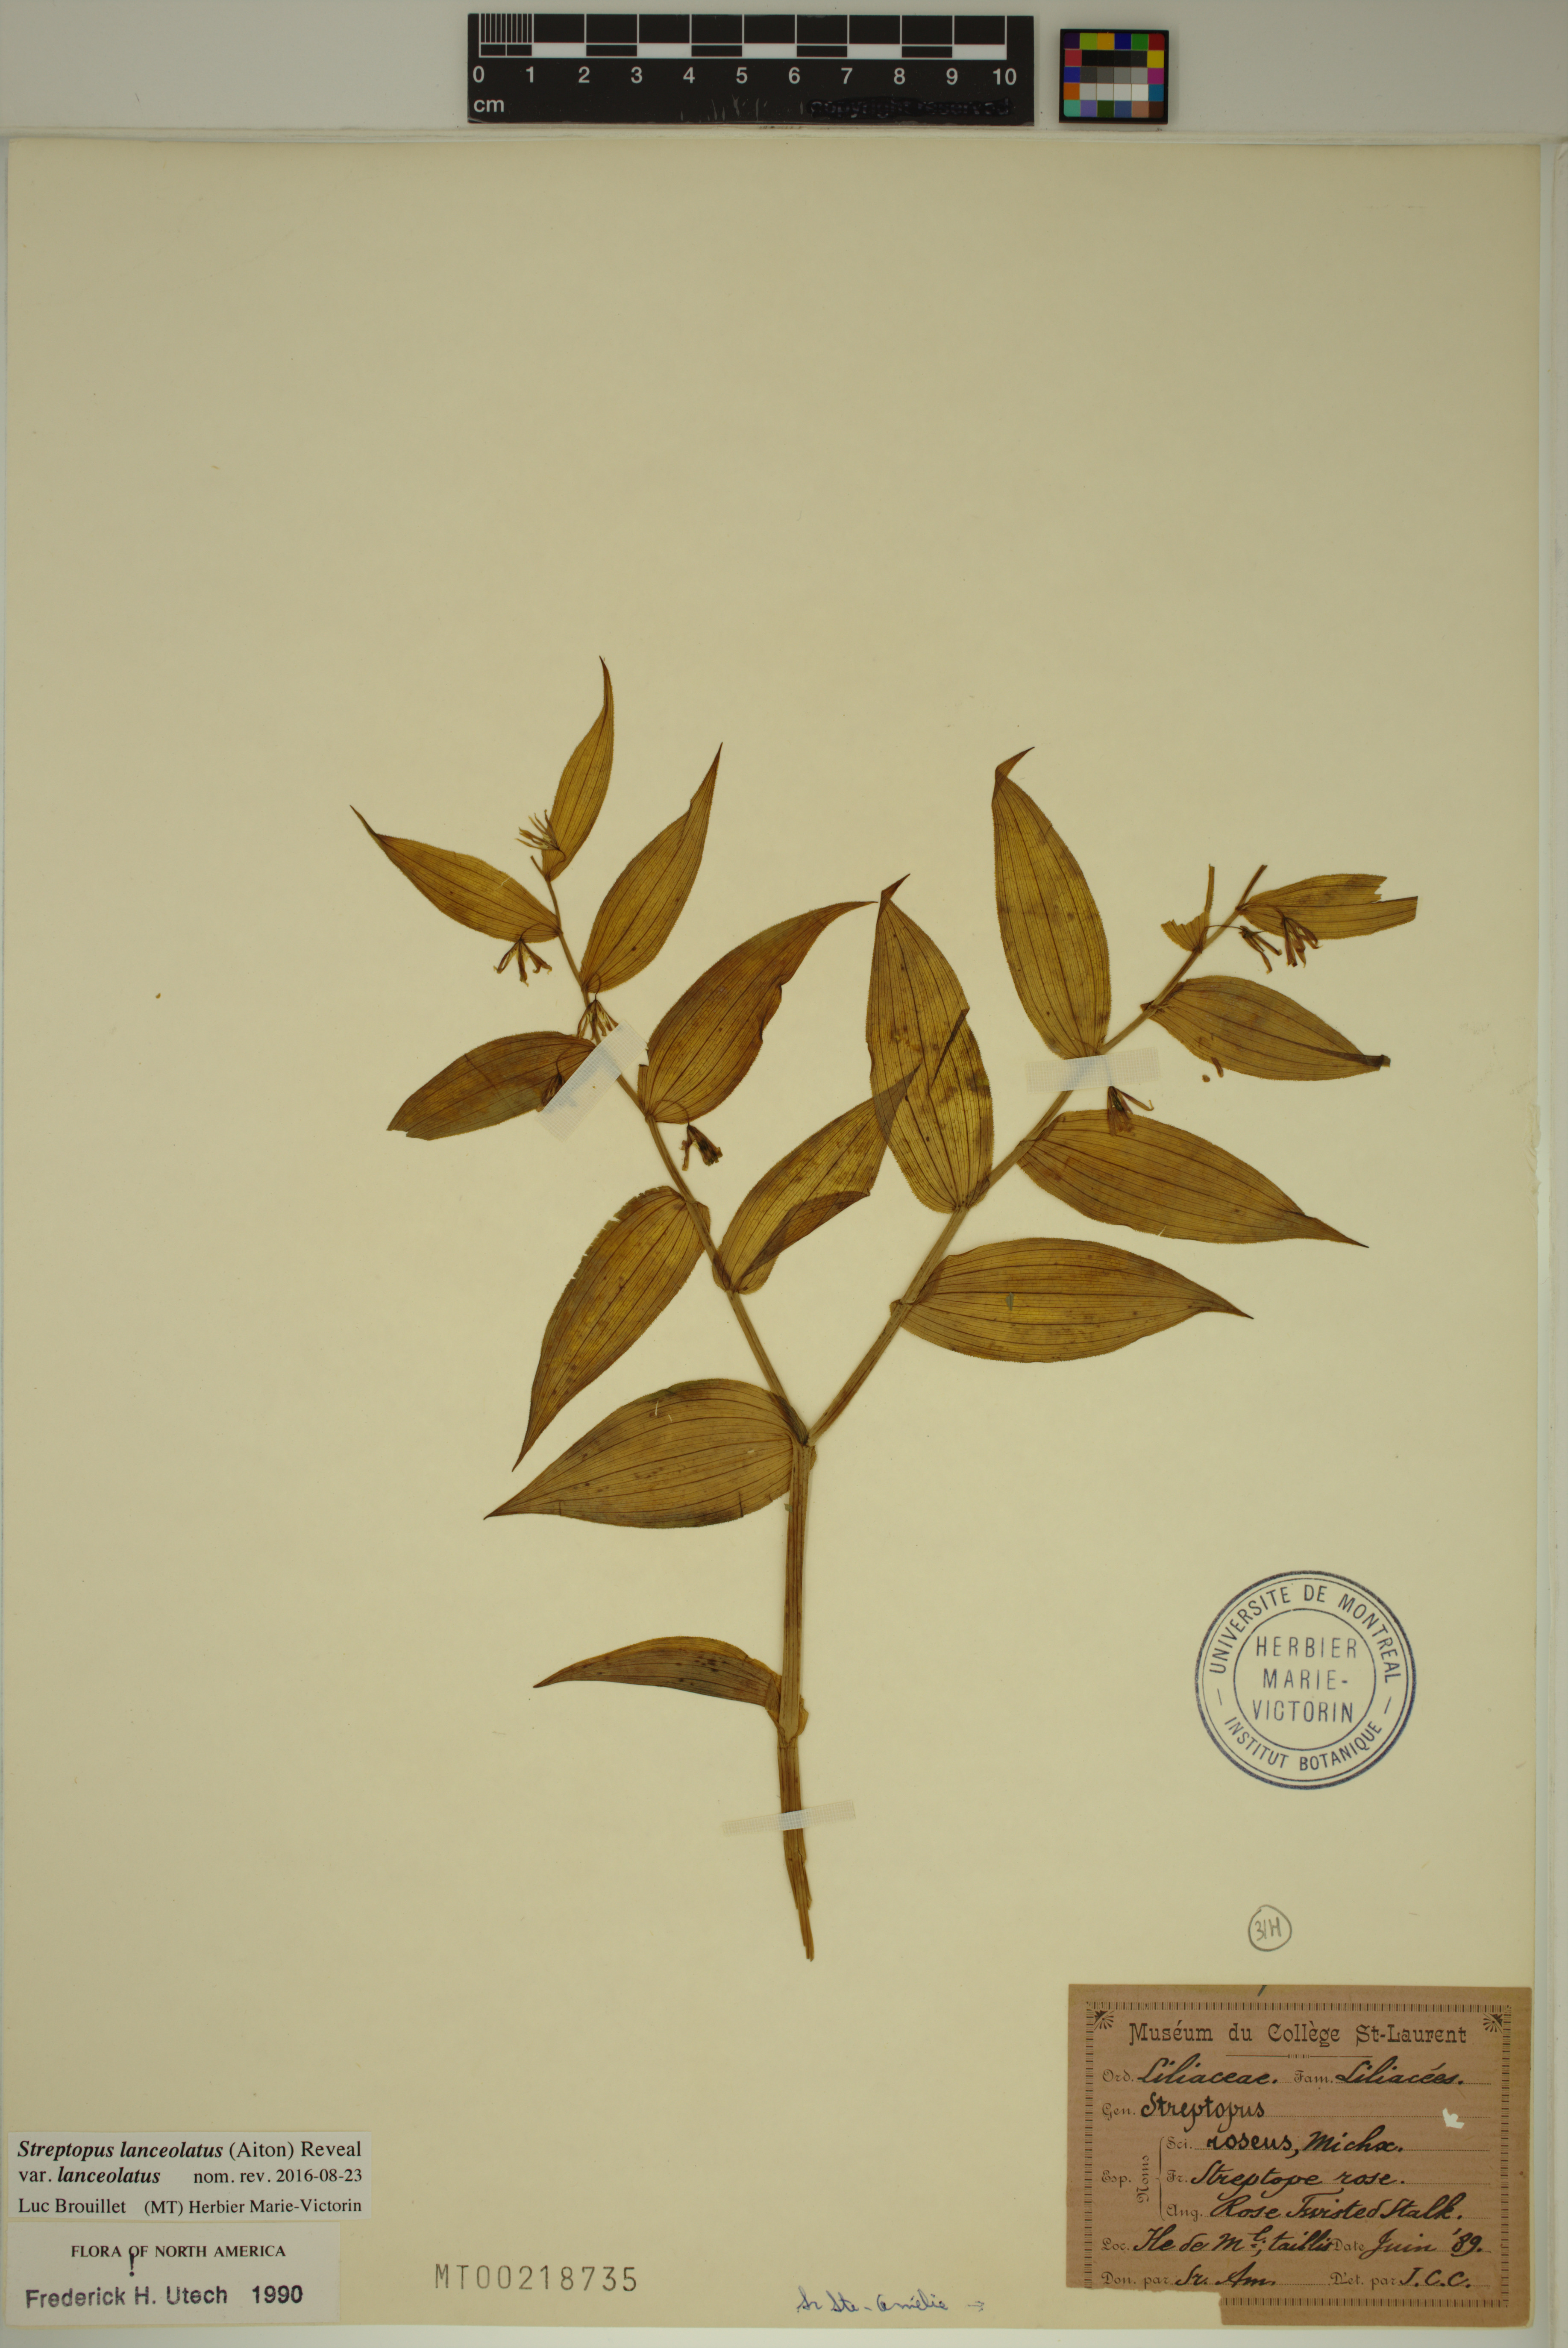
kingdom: Plantae
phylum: Tracheophyta
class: Liliopsida
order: Liliales
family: Liliaceae
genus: Streptopus
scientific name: Streptopus lanceolatus
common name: Rose mandarin
